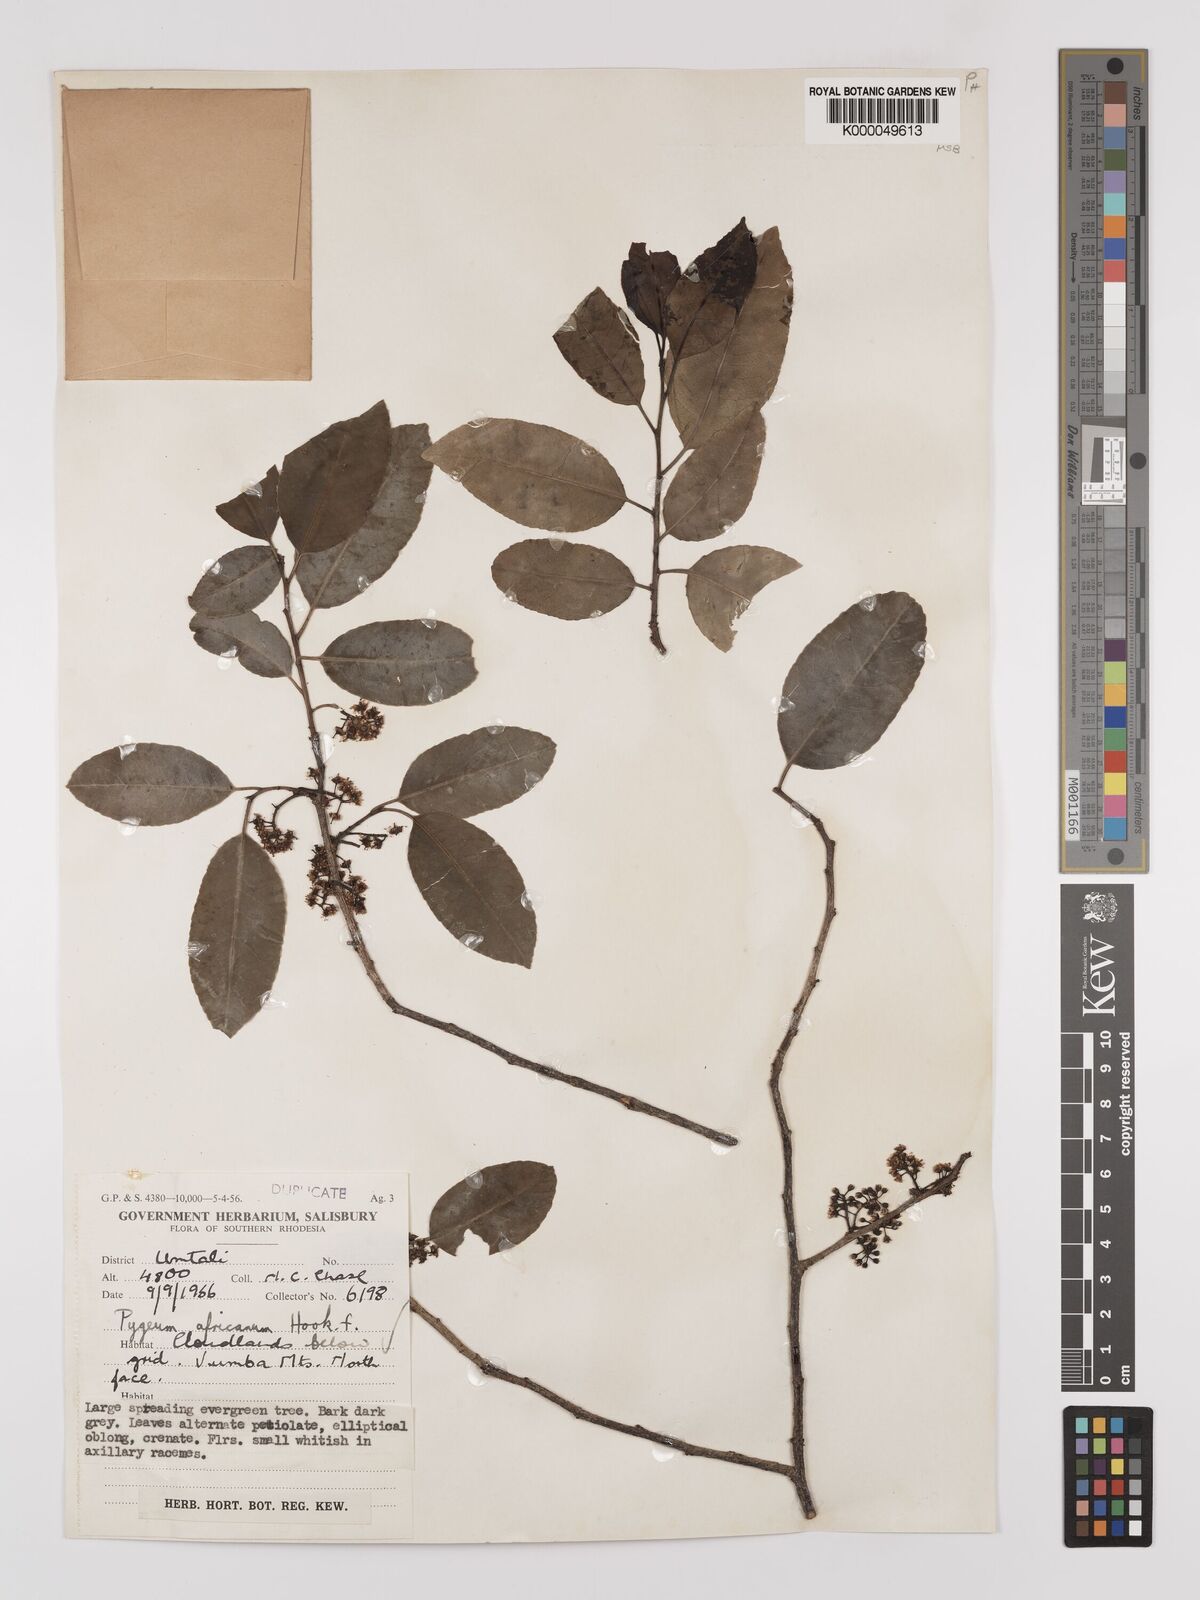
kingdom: Plantae
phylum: Tracheophyta
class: Magnoliopsida
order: Rosales
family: Rosaceae
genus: Prunus
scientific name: Prunus africana
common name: African cherry
